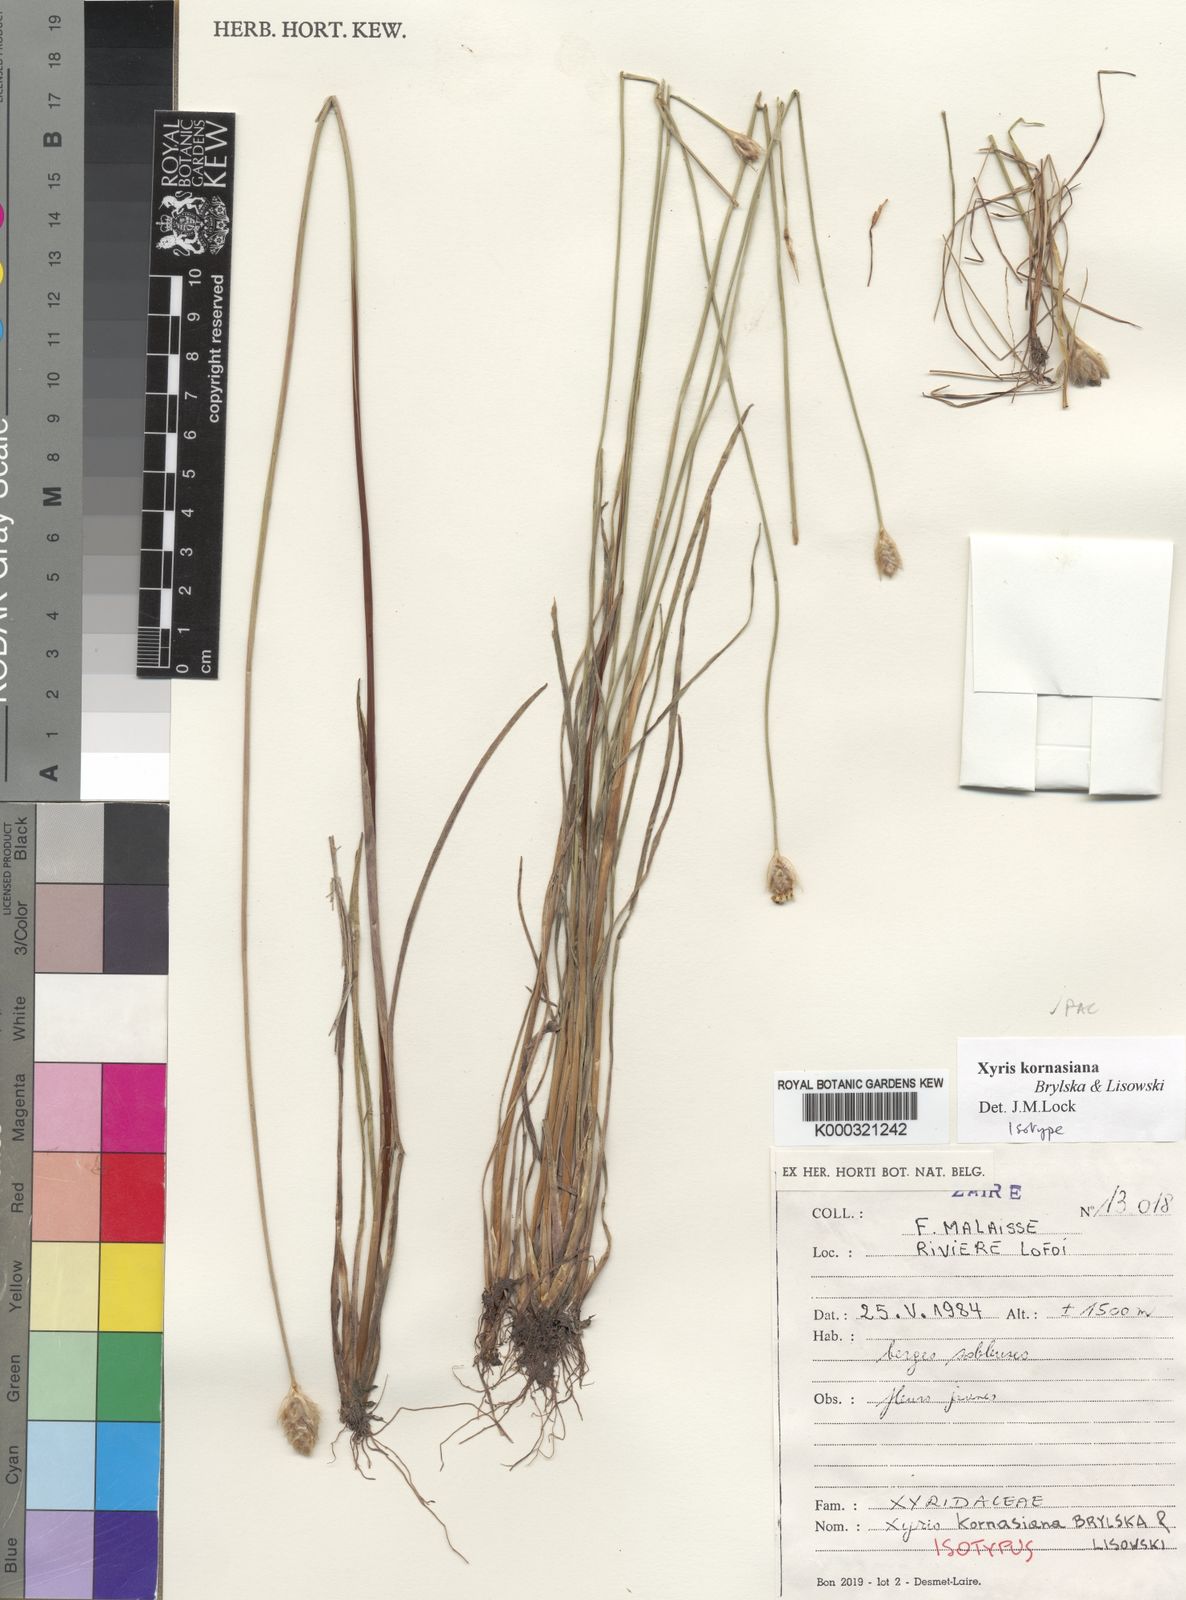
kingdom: Plantae
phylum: Tracheophyta
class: Liliopsida
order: Poales
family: Xyridaceae
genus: Xyris
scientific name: Xyris kornasiana
